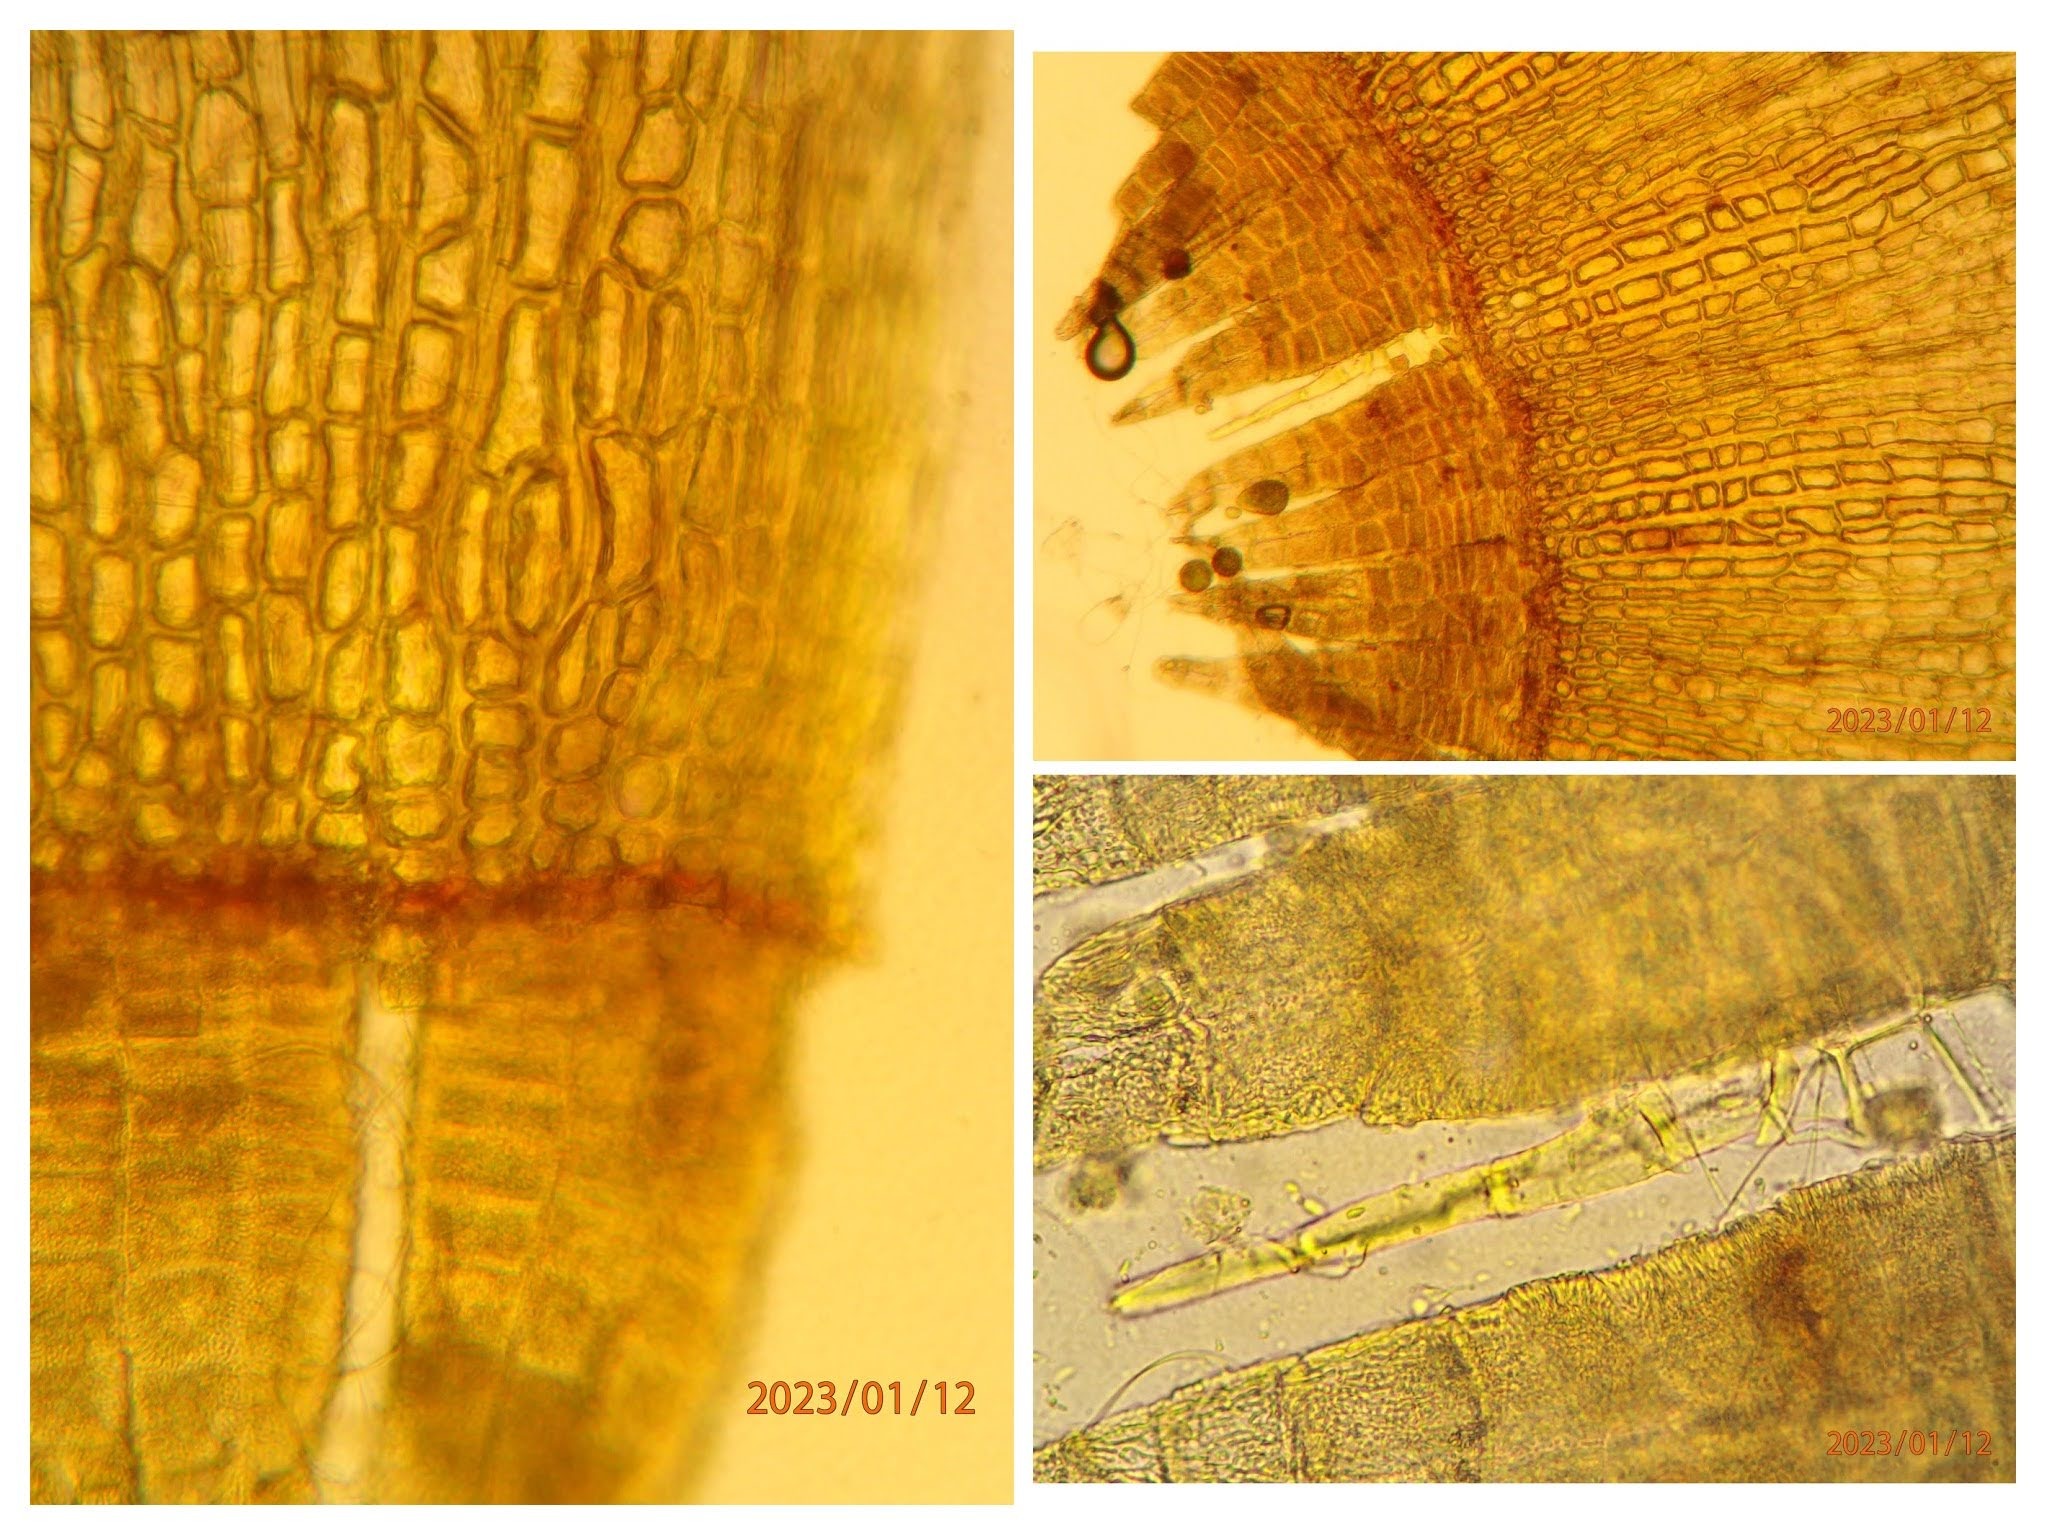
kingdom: Plantae
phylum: Bryophyta
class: Bryopsida
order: Orthotrichales
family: Orthotrichaceae
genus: Ulota
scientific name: Ulota intermedia
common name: Mellem-låddenhætte
